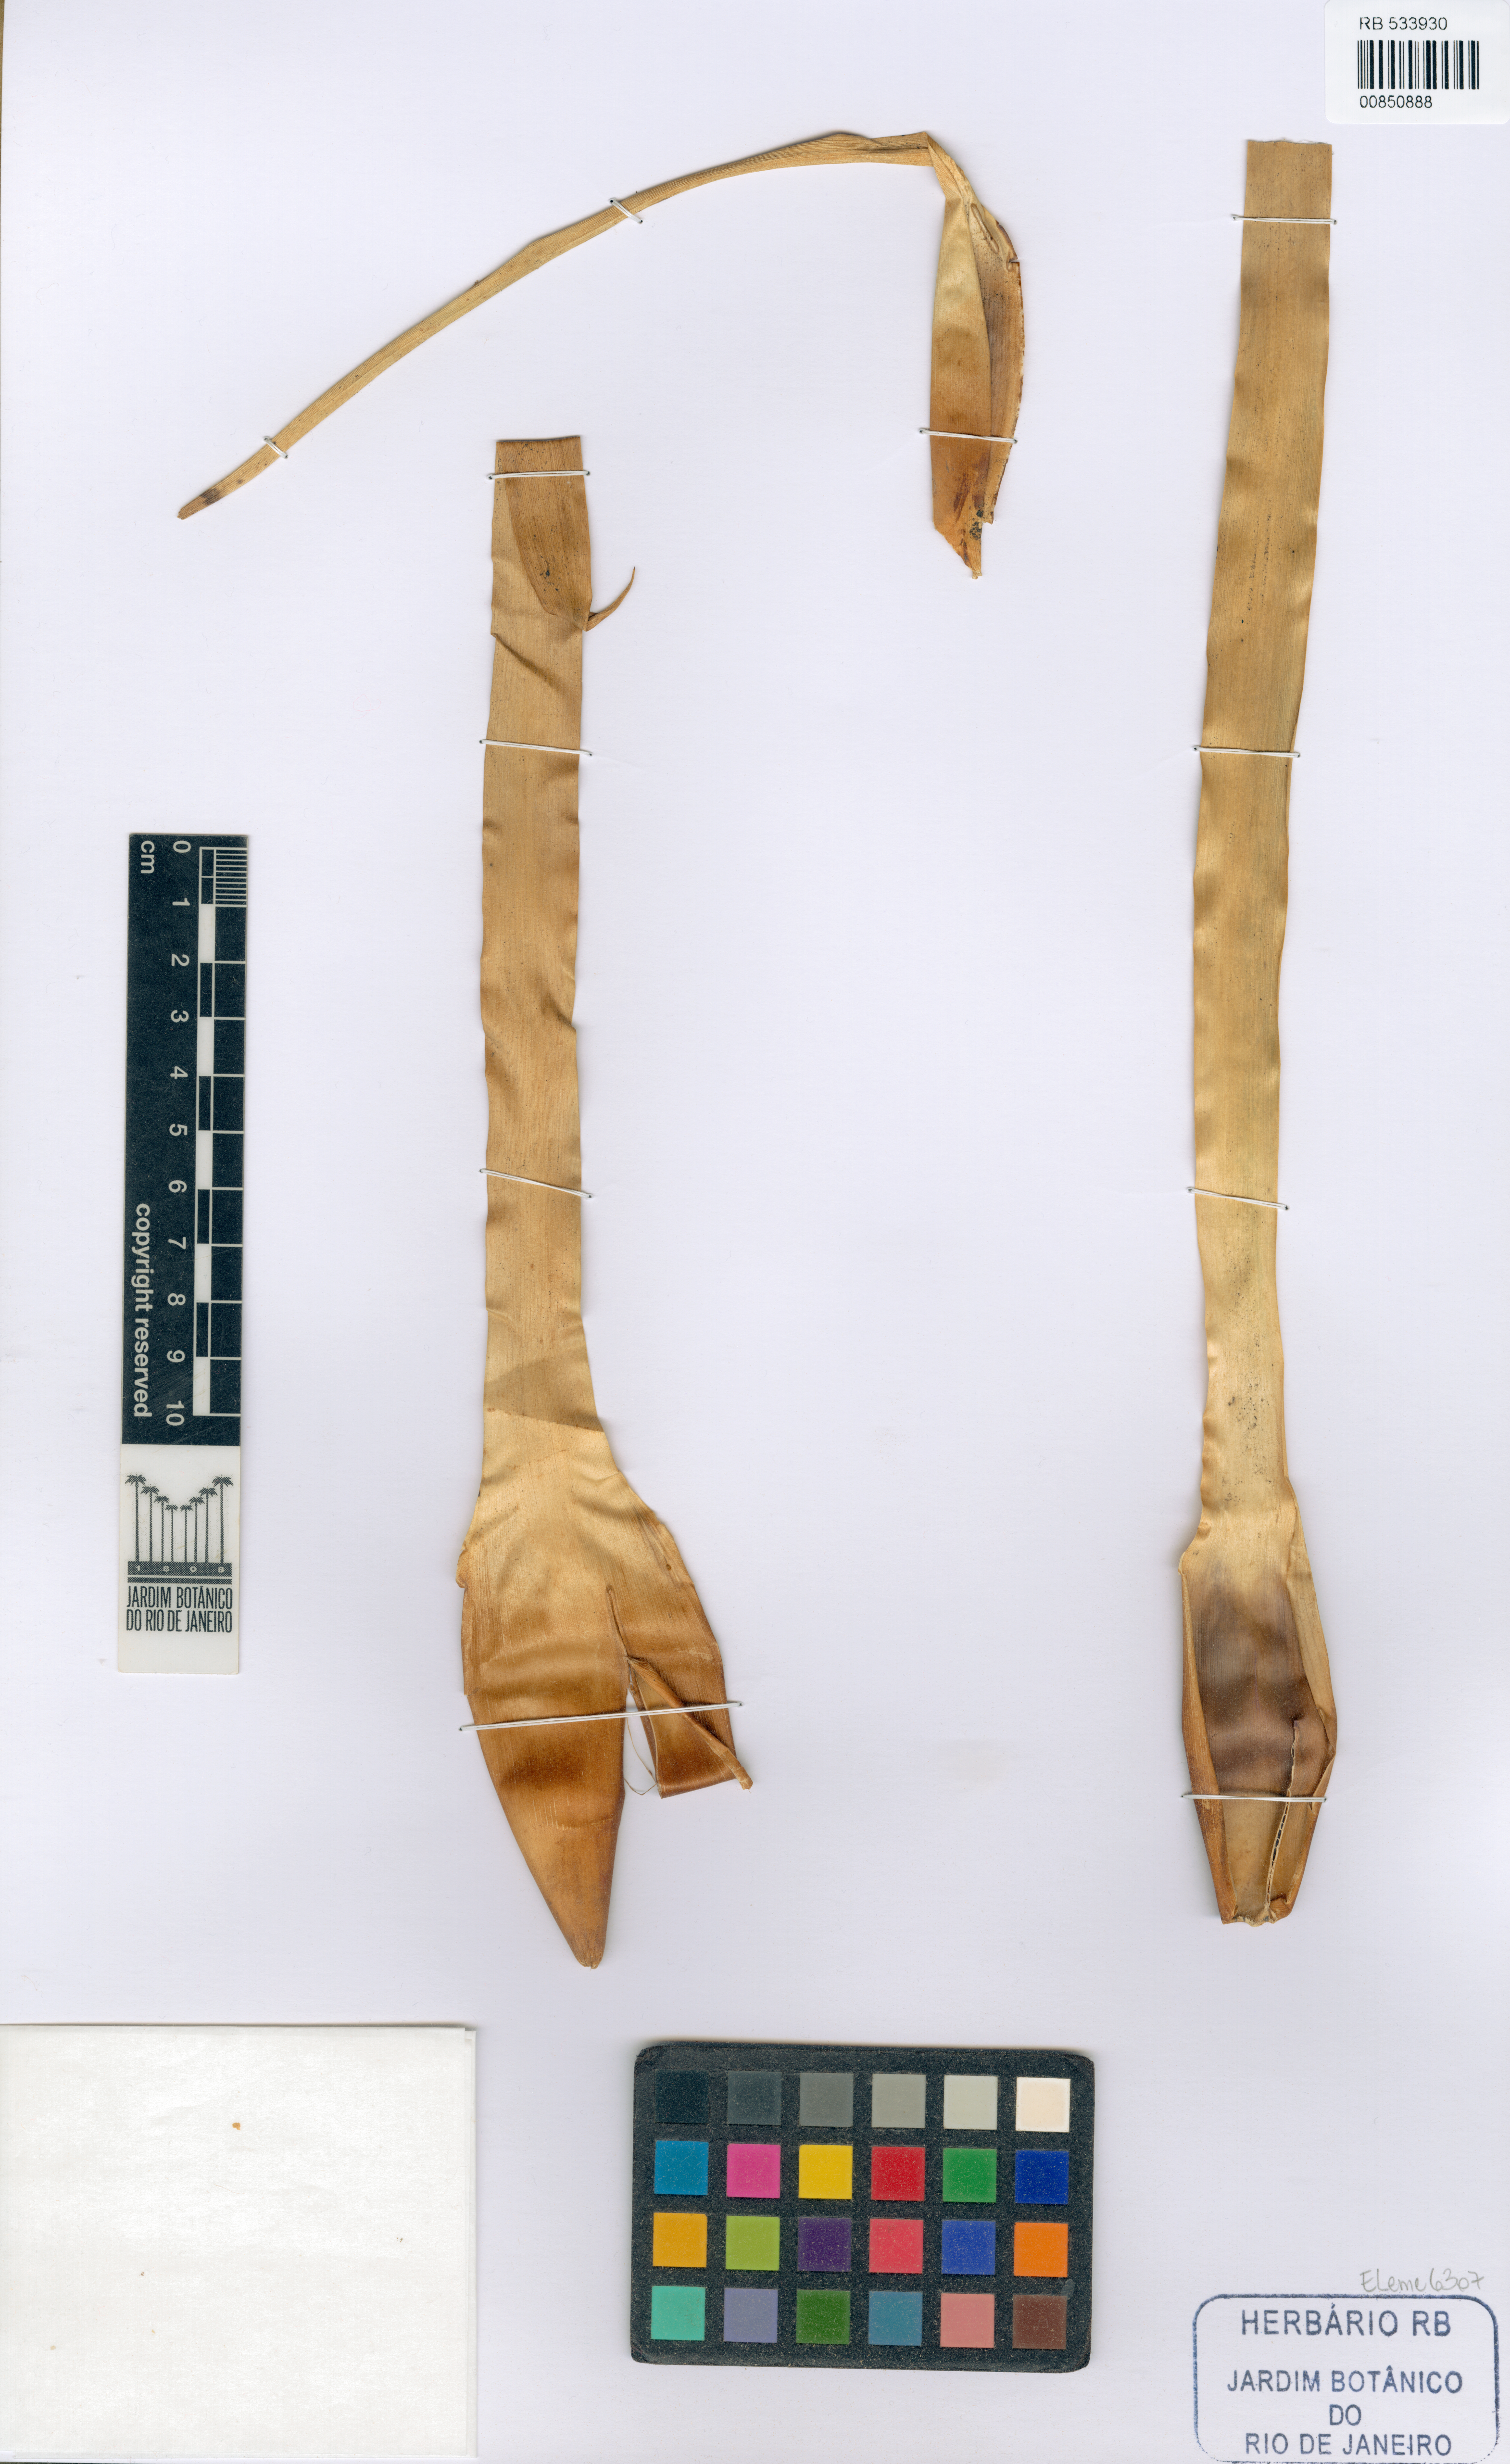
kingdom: Plantae
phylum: Tracheophyta
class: Liliopsida
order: Poales
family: Bromeliaceae
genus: Wittmackia
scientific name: Wittmackia ituberaensis
